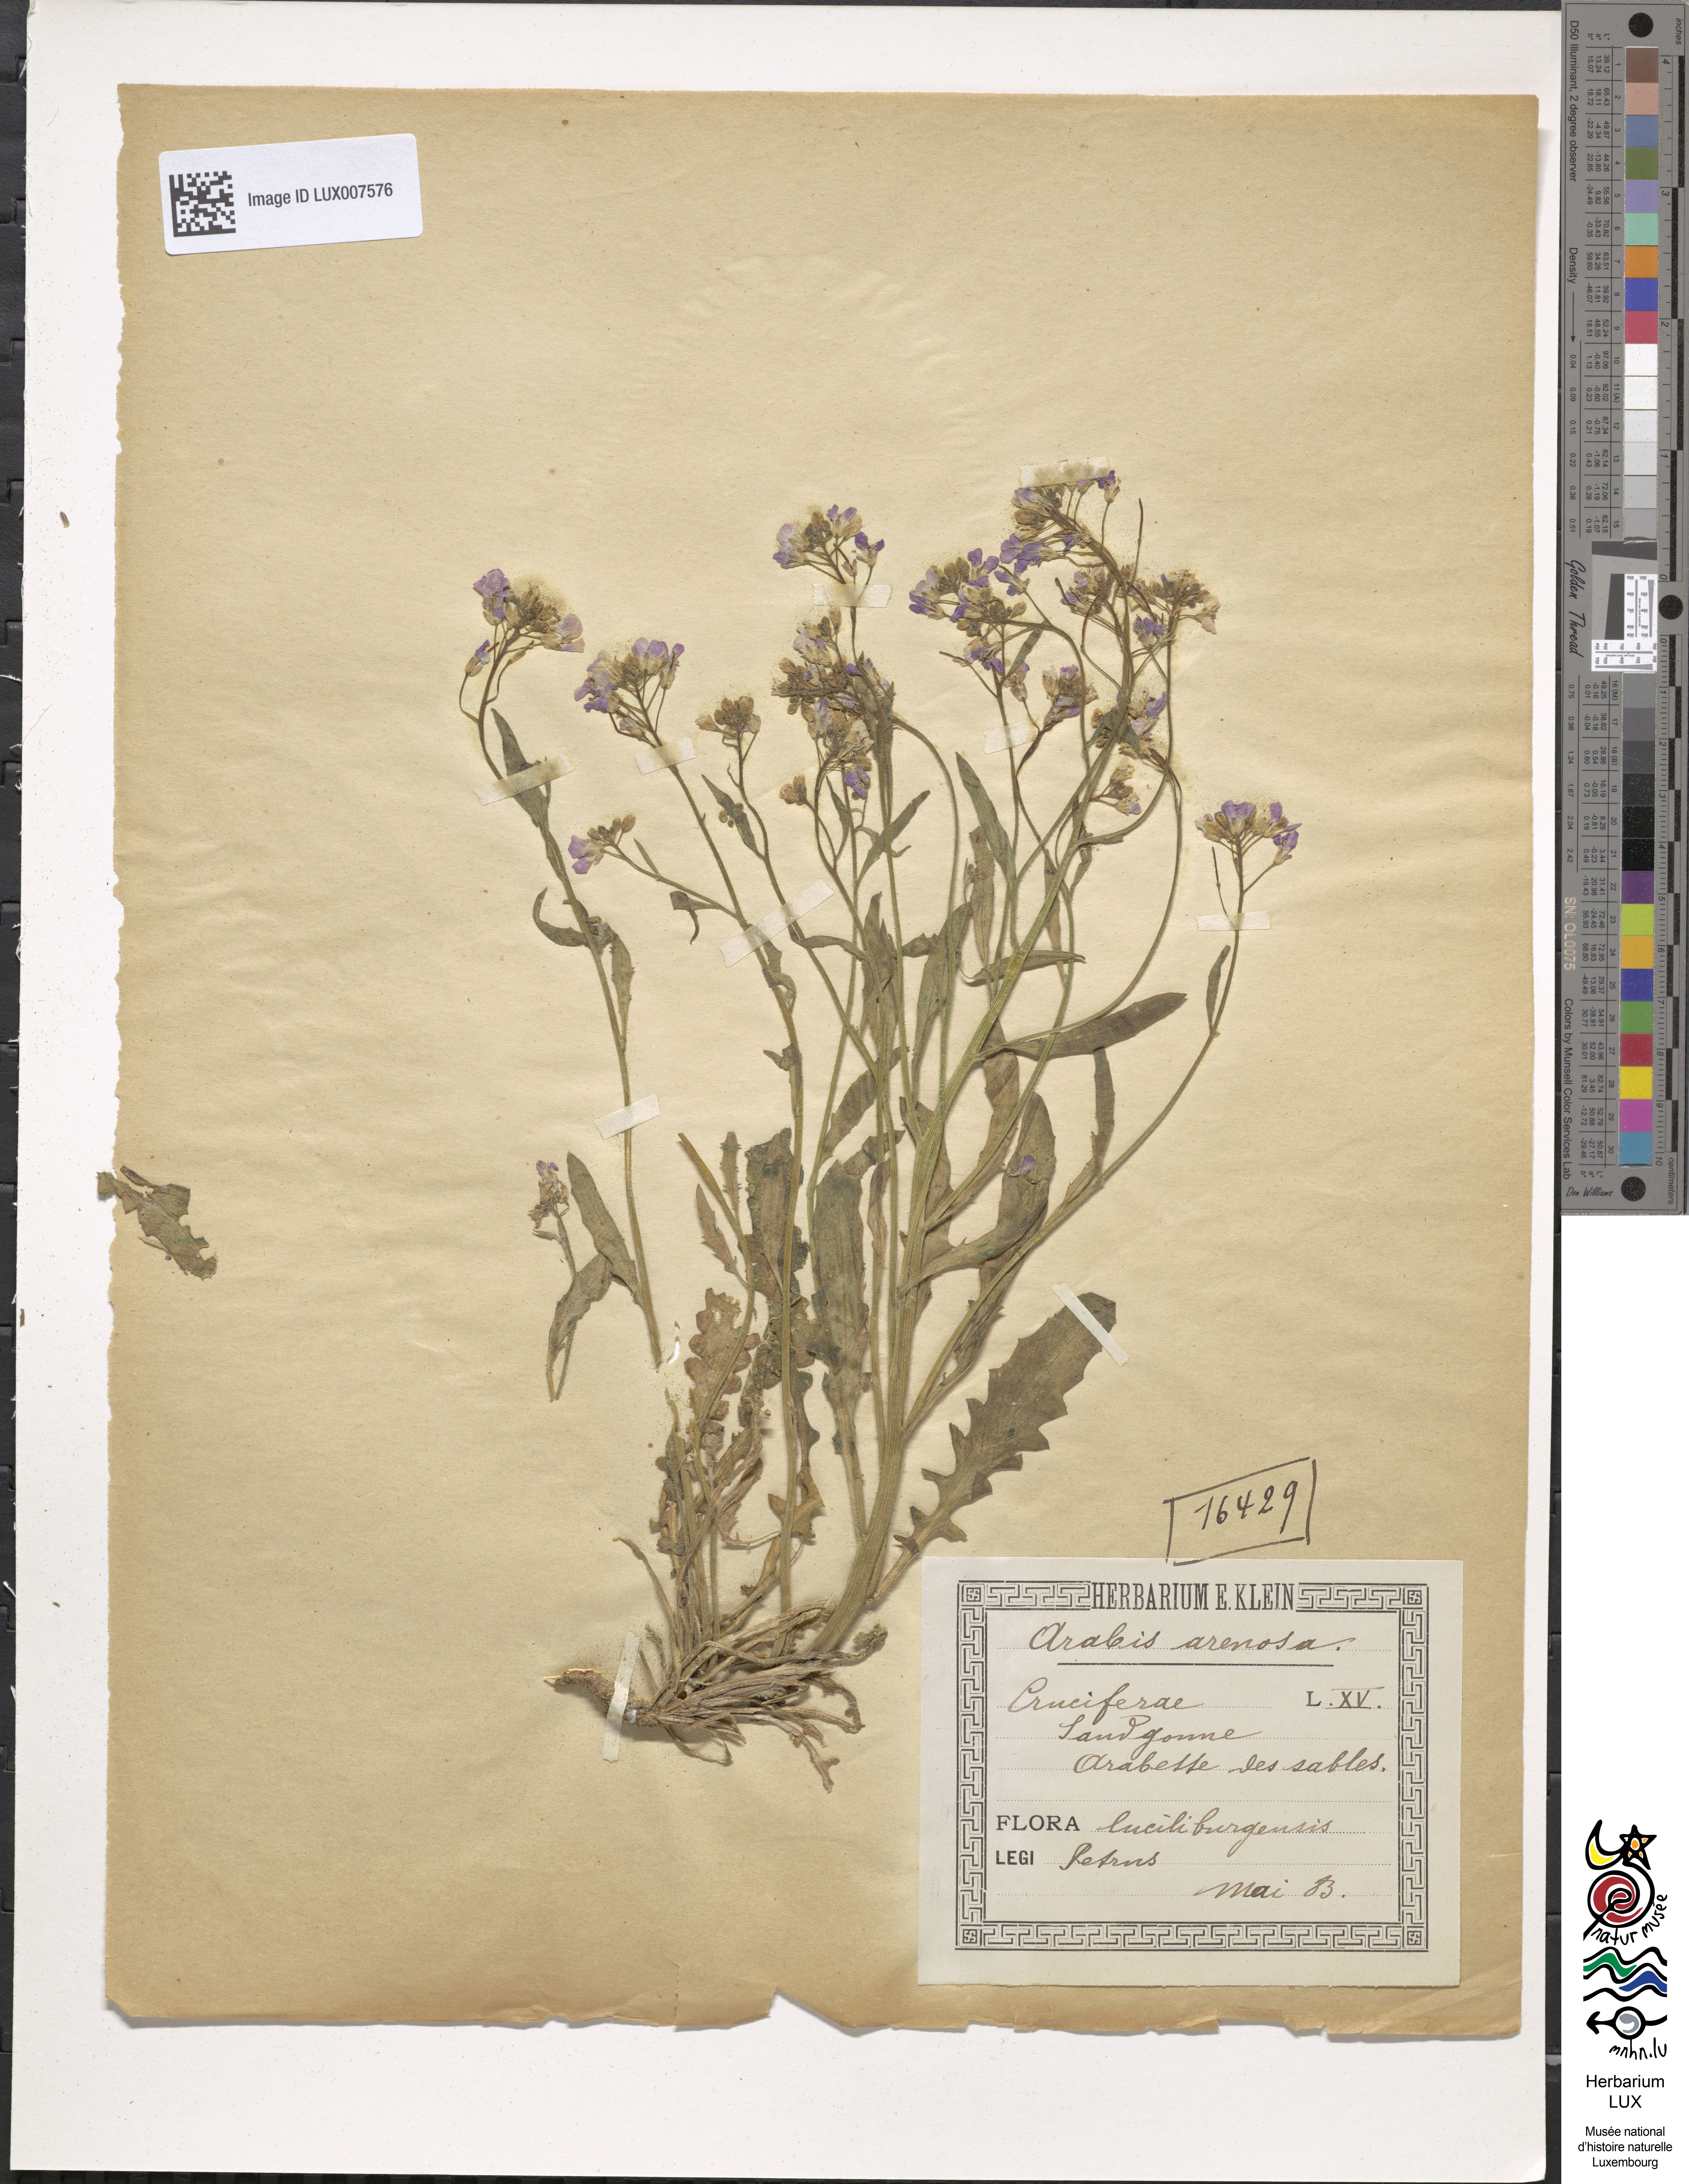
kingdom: Plantae
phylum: Tracheophyta
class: Magnoliopsida
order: Brassicales
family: Brassicaceae
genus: Arabidopsis
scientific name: Arabidopsis arenosa
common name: Sand rock-cress
